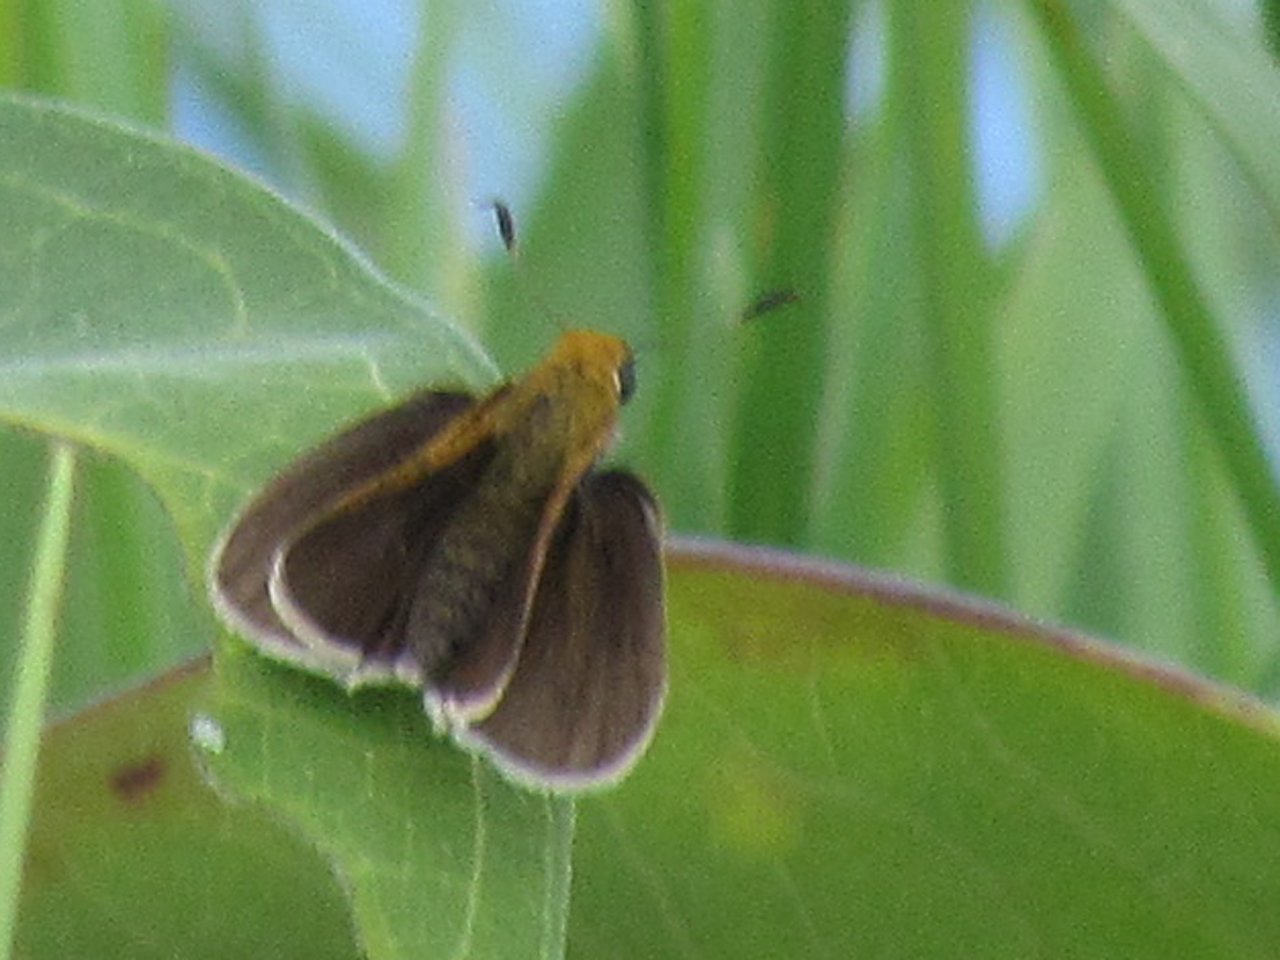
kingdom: Animalia
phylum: Arthropoda
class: Insecta
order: Lepidoptera
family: Hesperiidae
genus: Euphyes
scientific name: Euphyes vestris
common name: Dun Skipper
